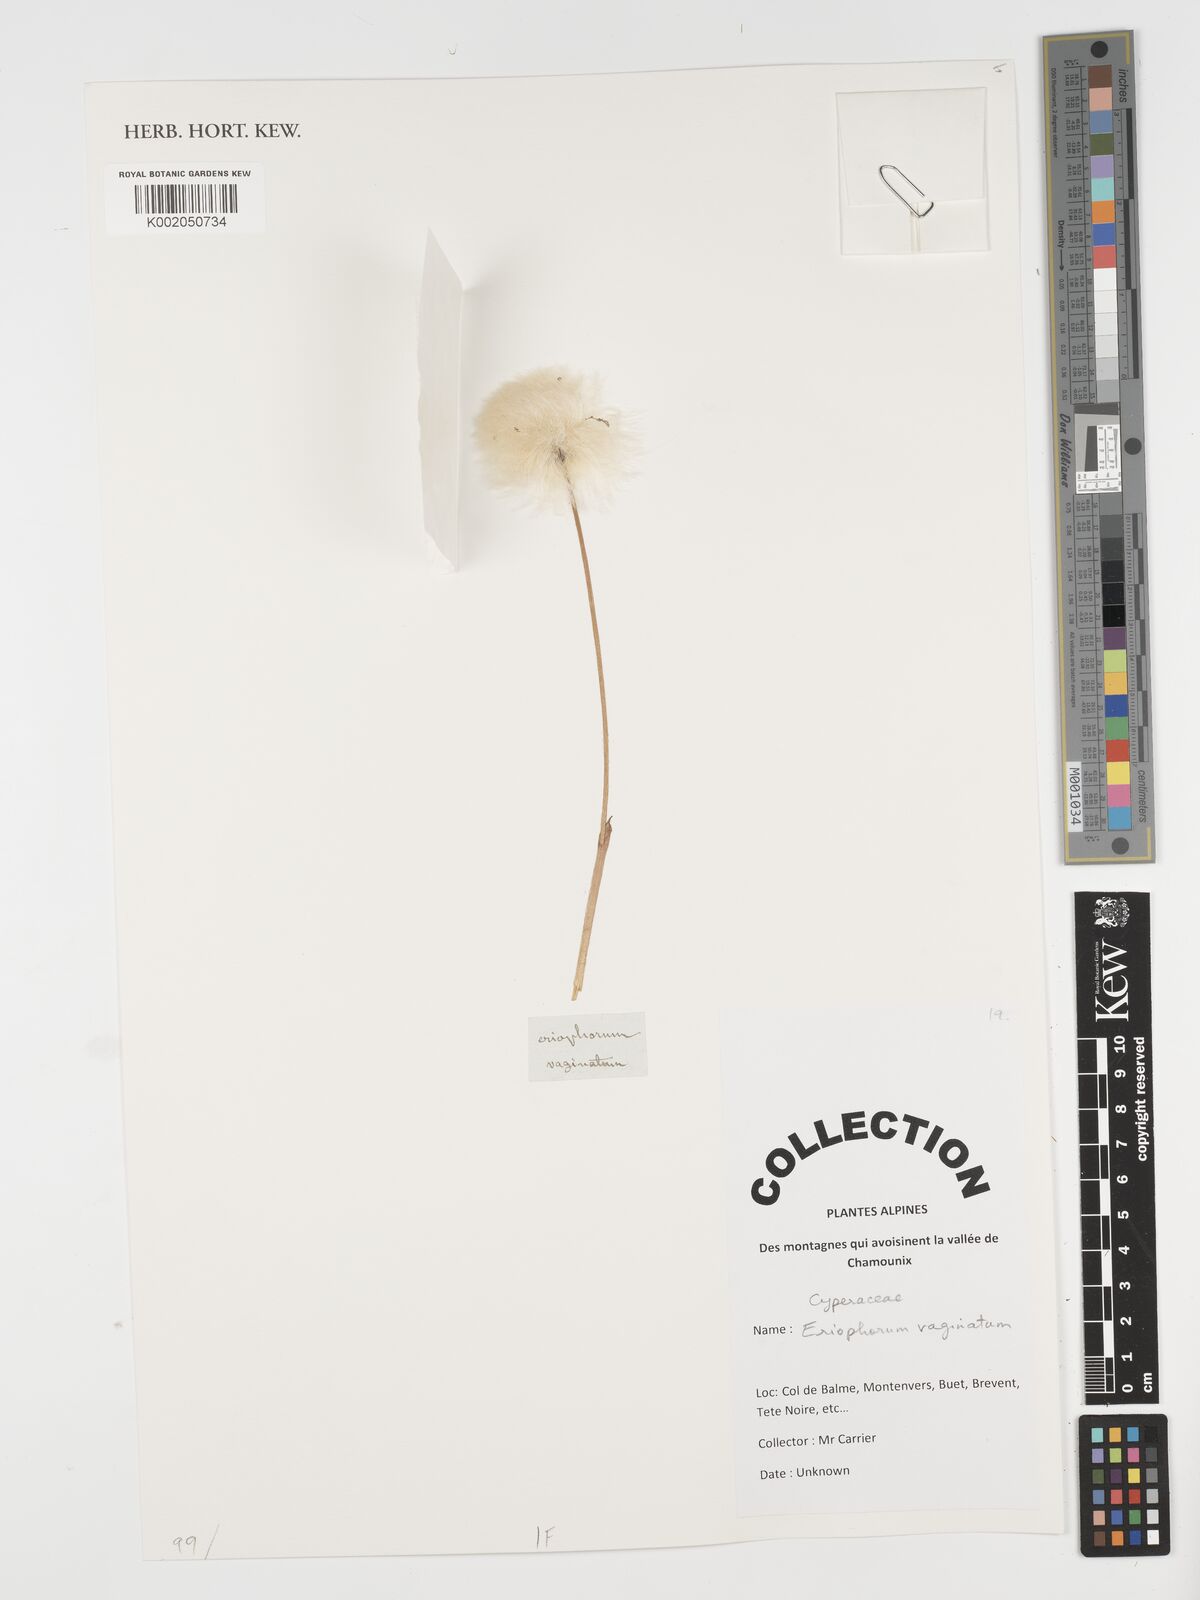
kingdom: Plantae
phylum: Tracheophyta
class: Liliopsida
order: Poales
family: Cyperaceae
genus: Eriophorum
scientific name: Eriophorum vaginatum
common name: Hare's-tail cottongrass
